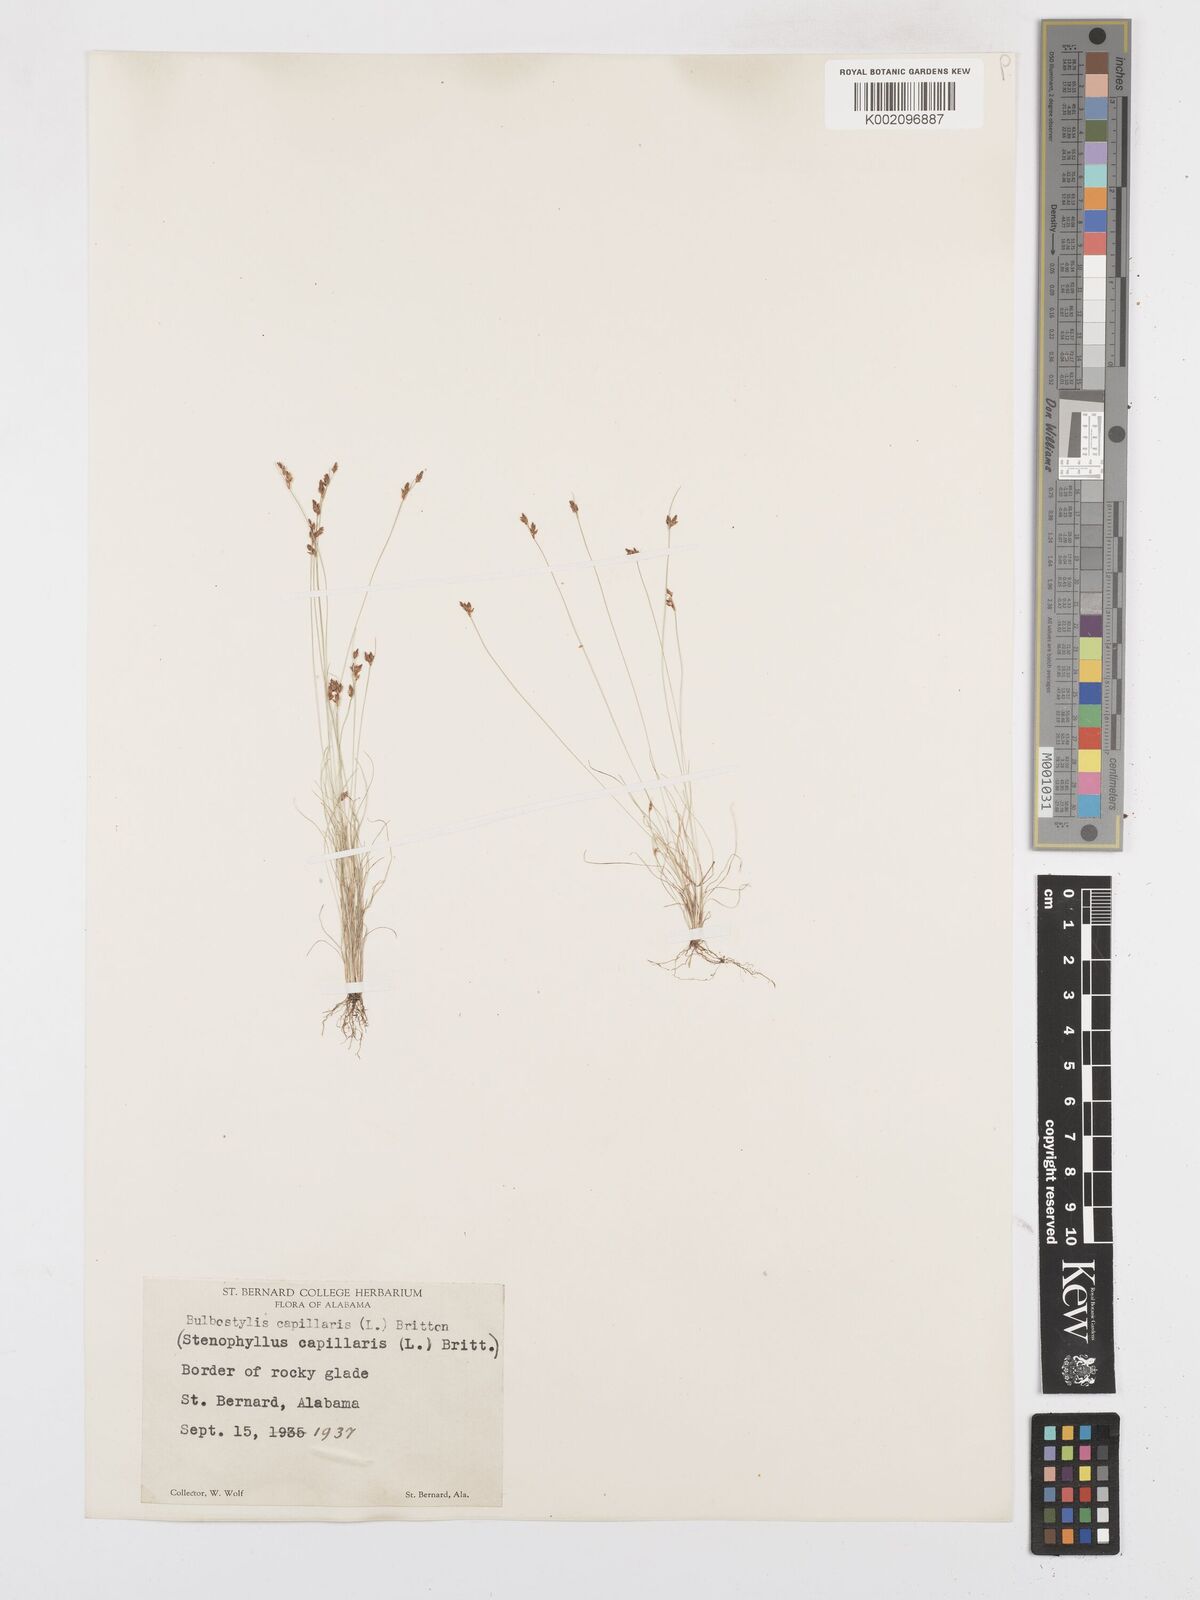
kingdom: Plantae
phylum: Tracheophyta
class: Liliopsida
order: Poales
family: Cyperaceae
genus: Bulbostylis
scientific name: Bulbostylis capillaris
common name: Densetuft hairsedge
